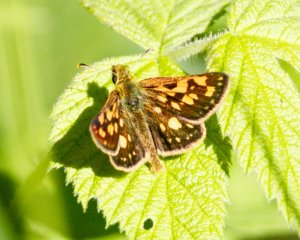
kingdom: Animalia
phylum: Arthropoda
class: Insecta
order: Lepidoptera
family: Hesperiidae
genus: Carterocephalus
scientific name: Carterocephalus palaemon
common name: Chequered Skipper
